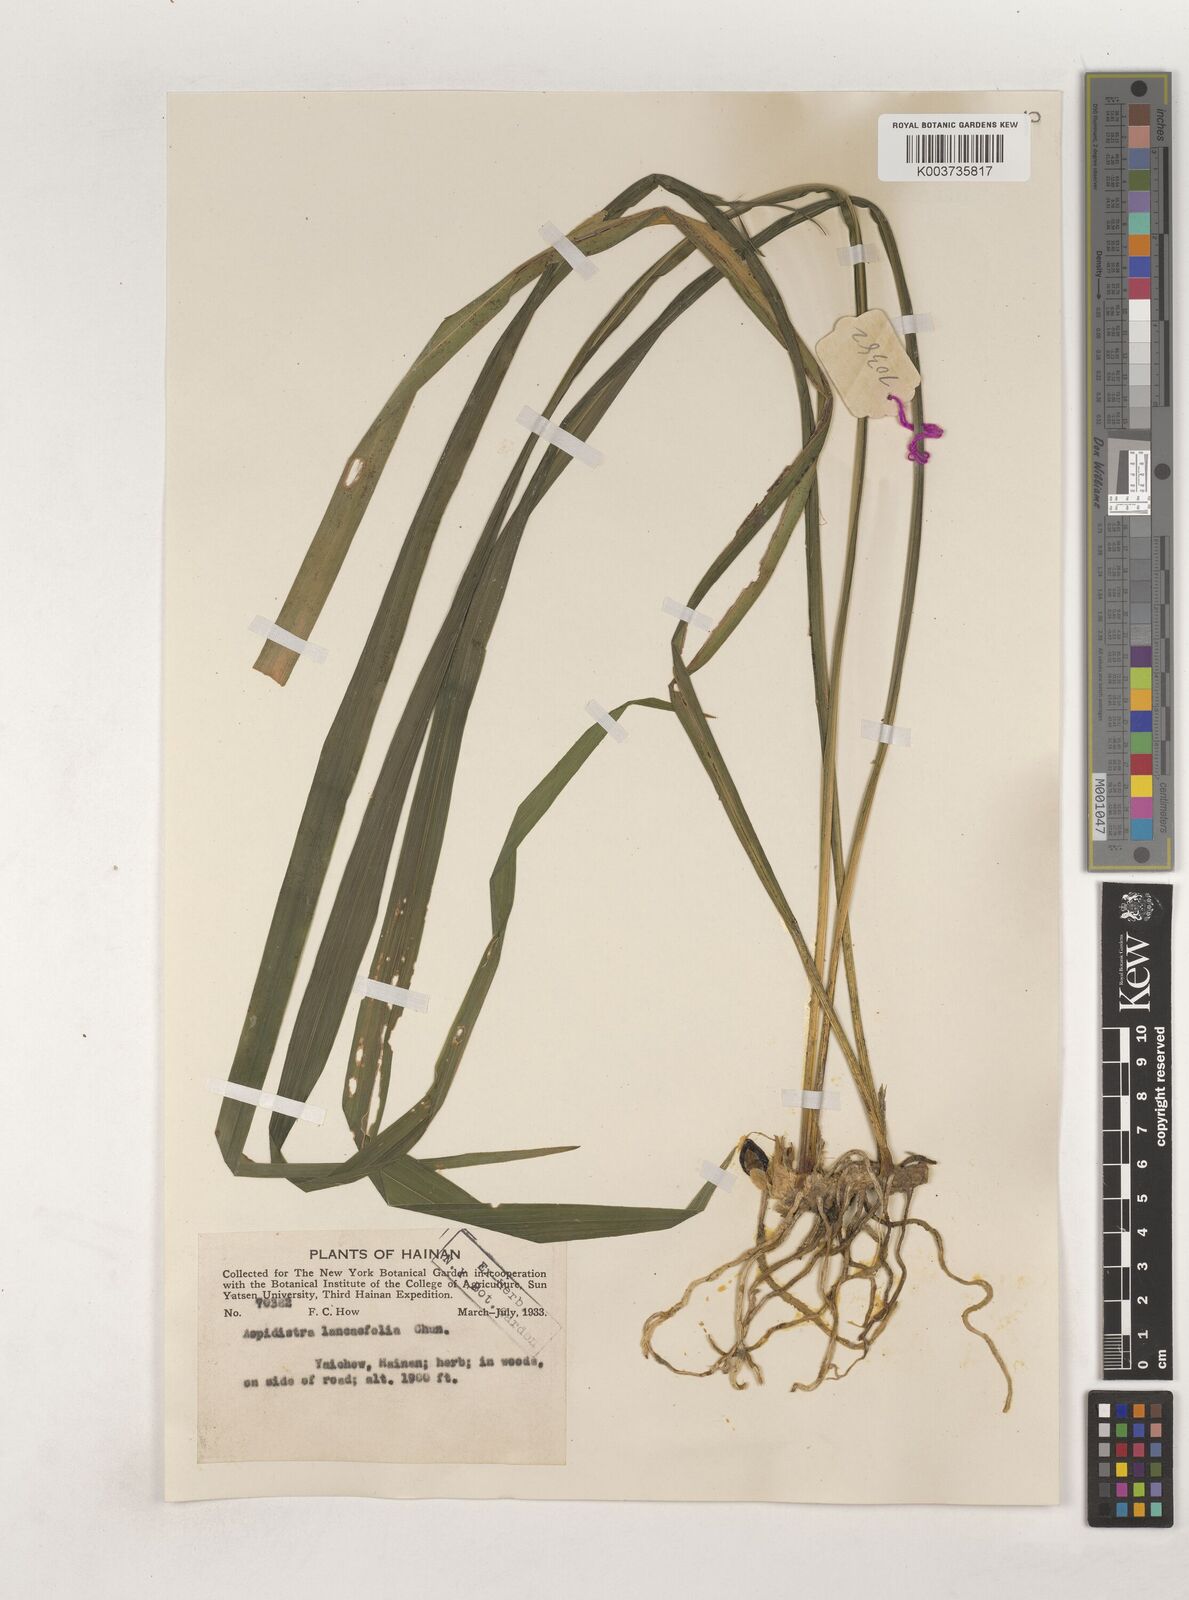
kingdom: Plantae
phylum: Tracheophyta
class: Liliopsida
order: Asparagales
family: Asparagaceae
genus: Aspidistra
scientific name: Aspidistra linearifolia
